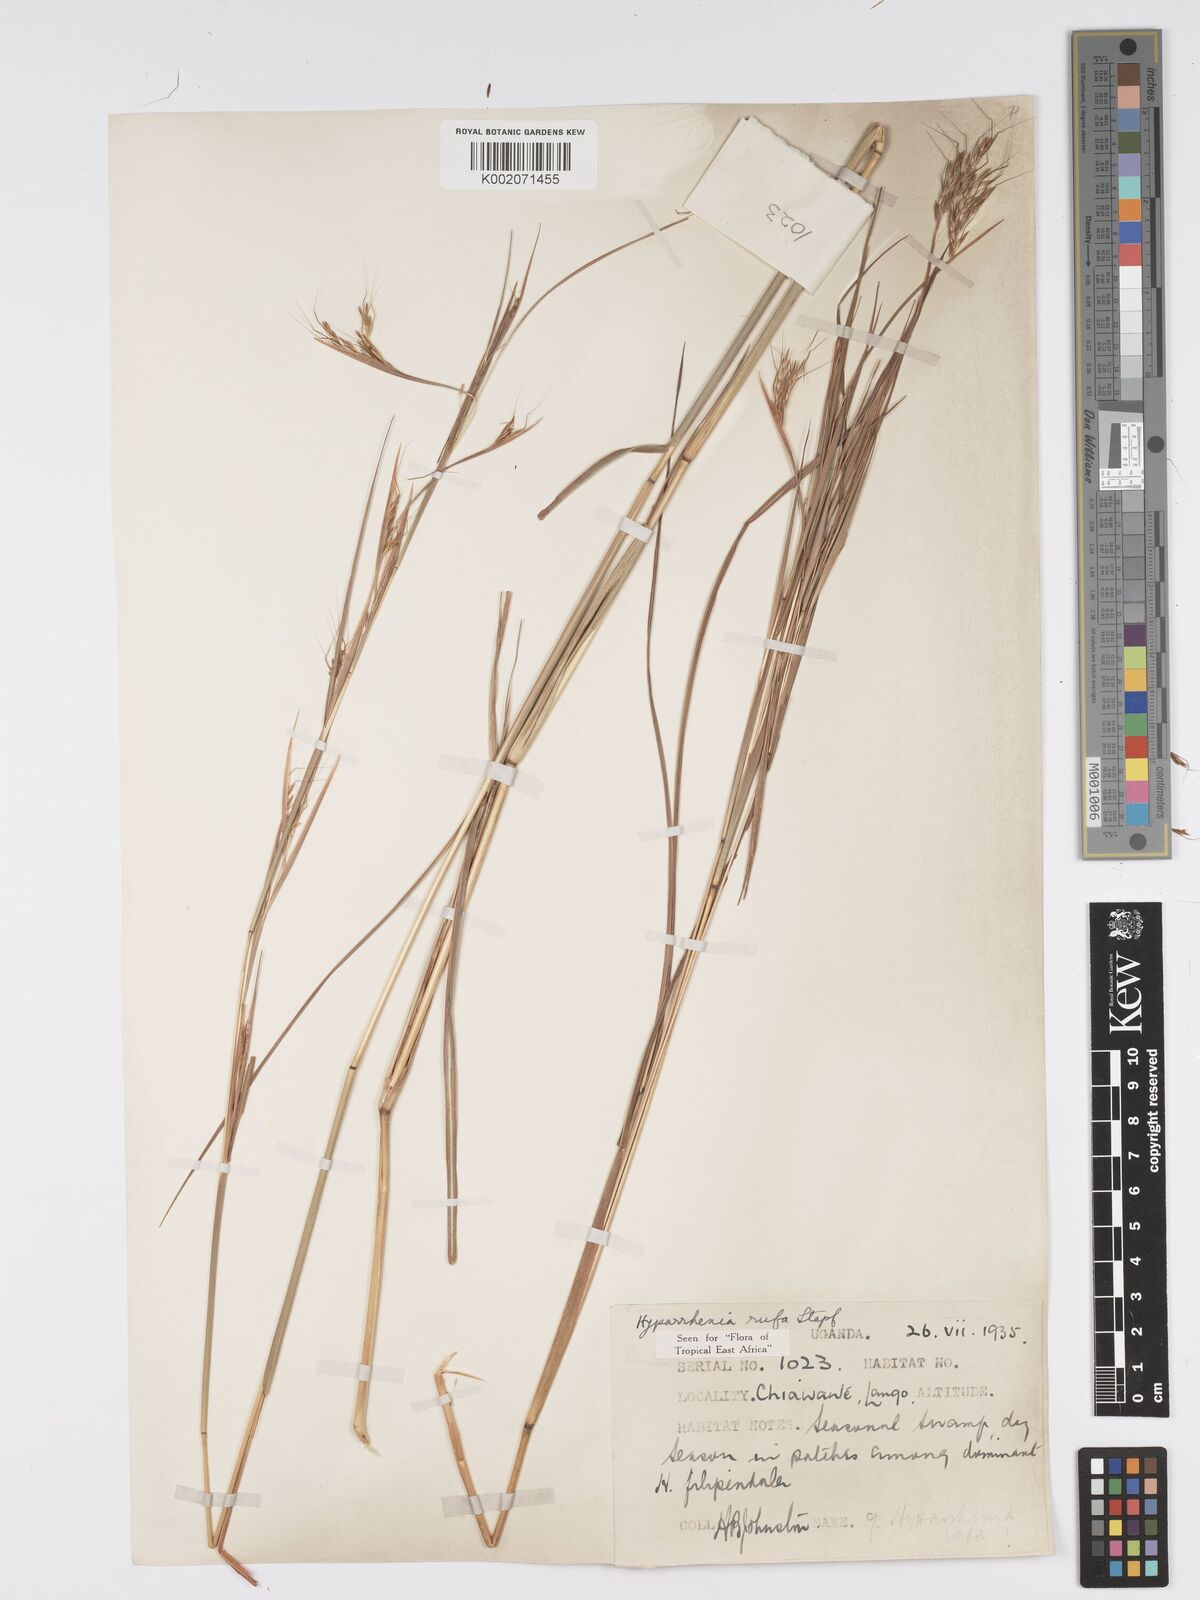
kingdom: Plantae
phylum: Tracheophyta
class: Liliopsida
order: Poales
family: Poaceae
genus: Hyparrhenia
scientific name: Hyparrhenia rufa
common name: Jaraguagrass
